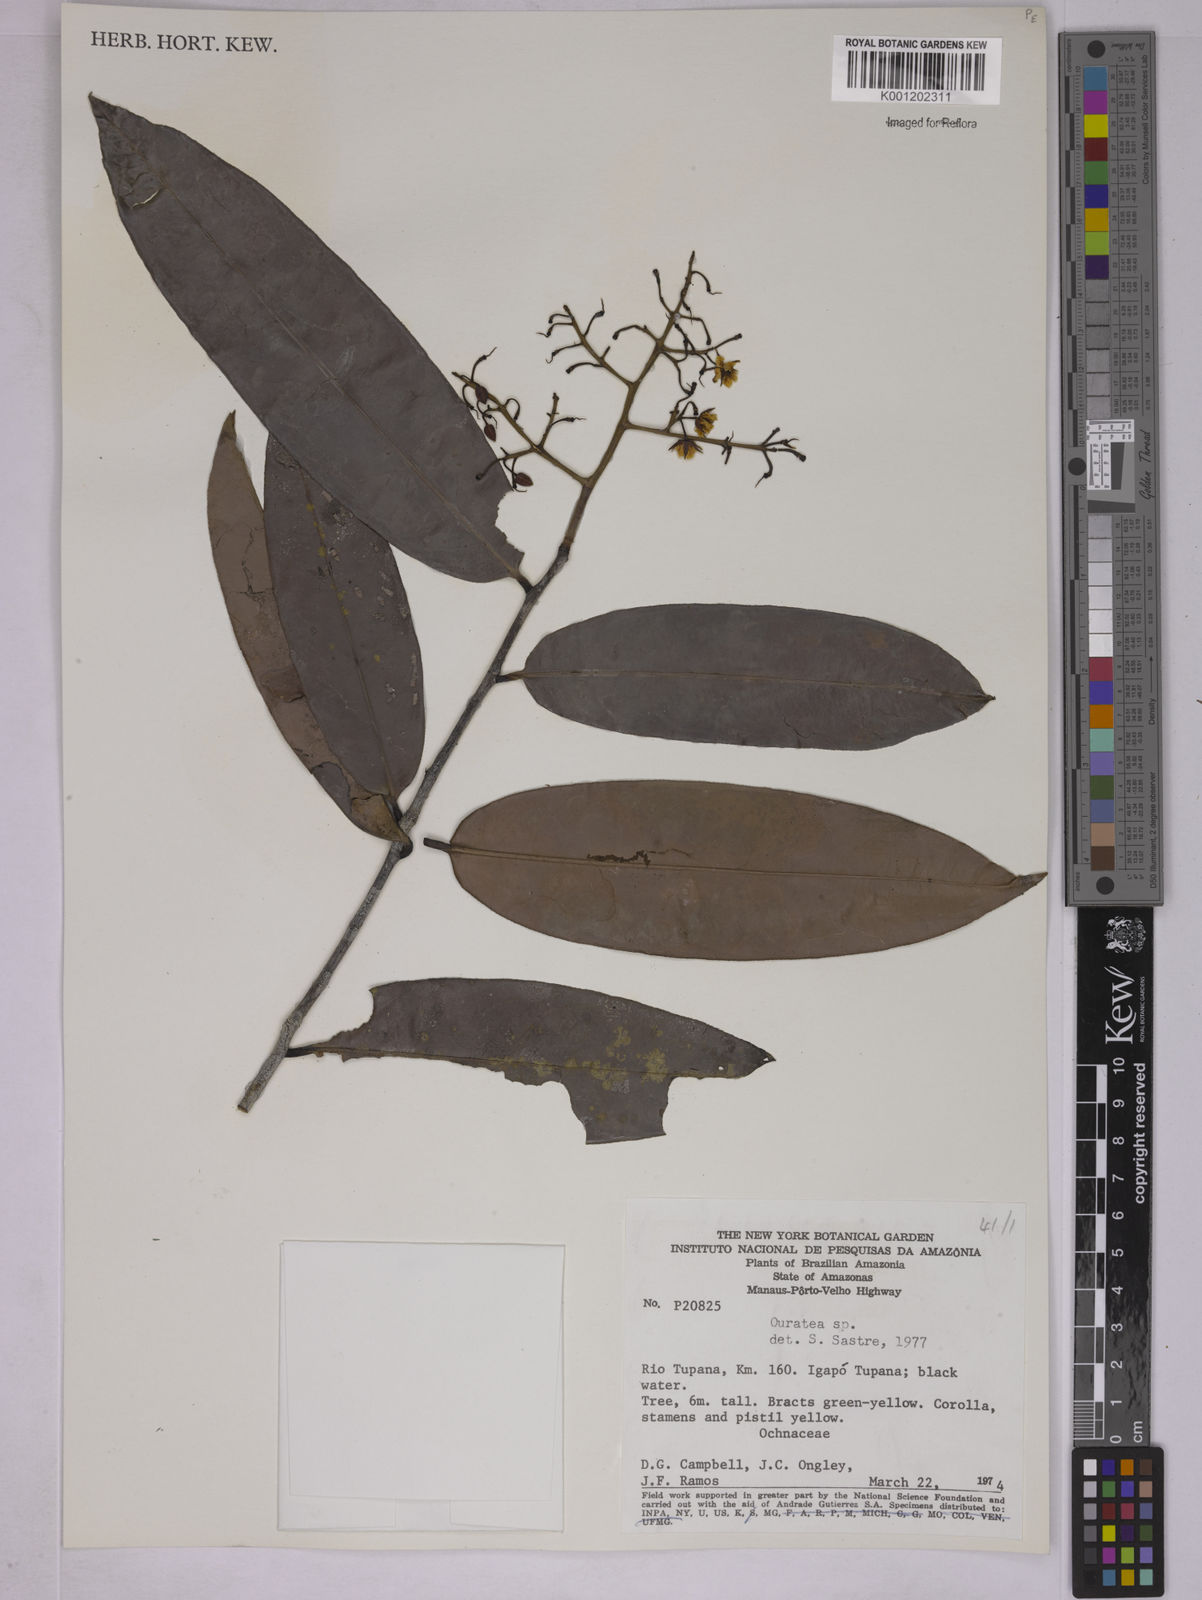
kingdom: Plantae
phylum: Tracheophyta
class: Magnoliopsida
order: Malpighiales
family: Ochnaceae
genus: Ouratea
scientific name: Ouratea
